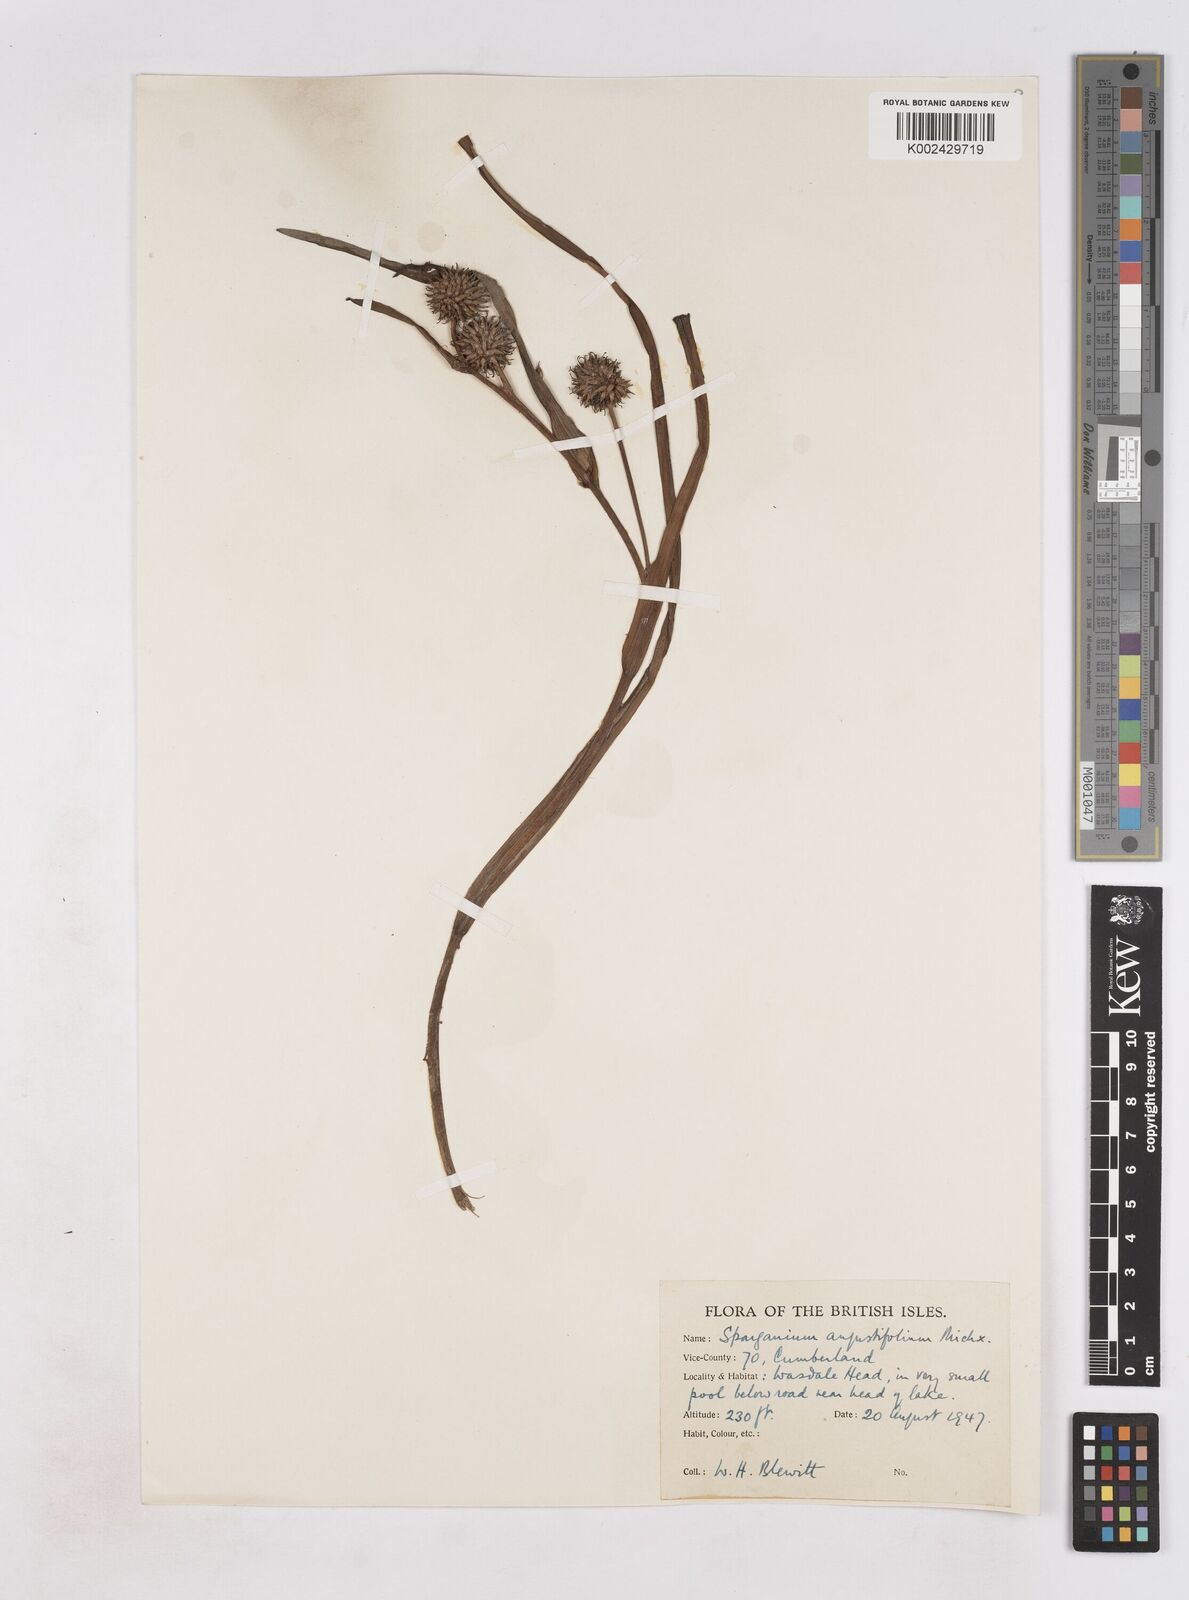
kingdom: Plantae
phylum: Tracheophyta
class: Liliopsida
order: Poales
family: Typhaceae
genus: Sparganium
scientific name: Sparganium angustifolium
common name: Floating bur-reed
